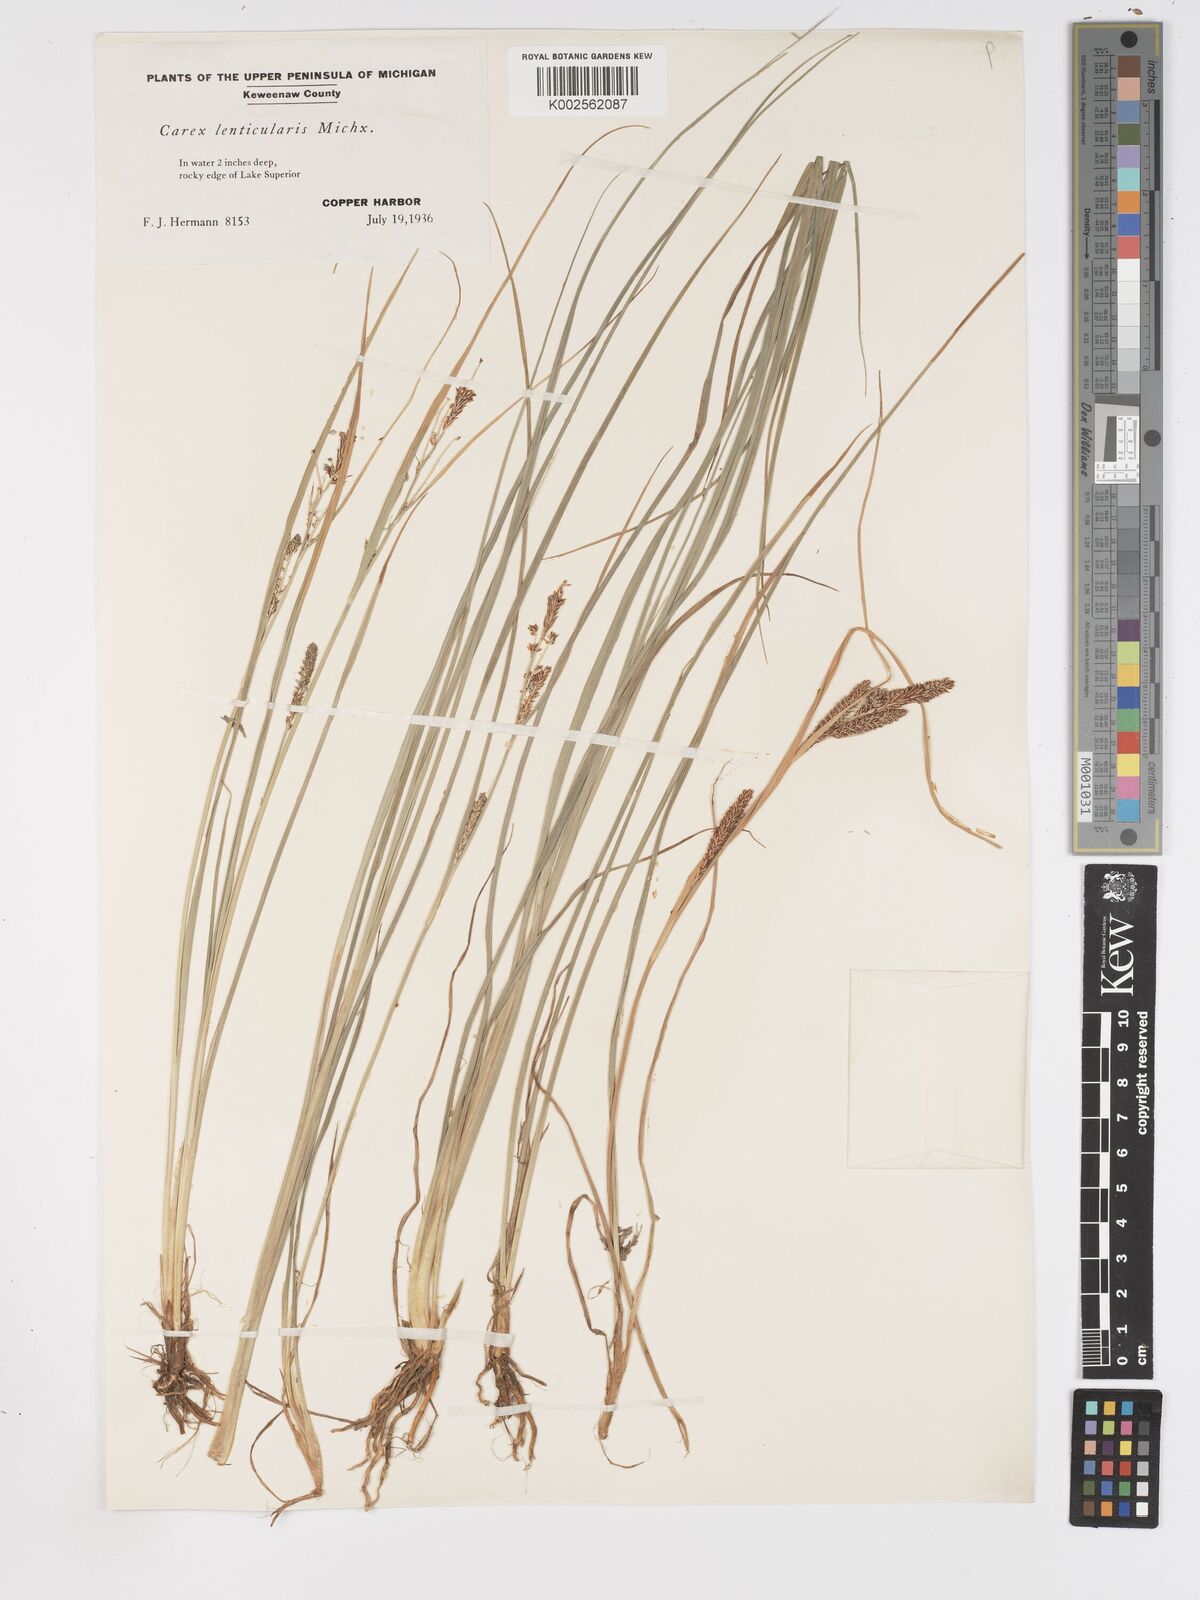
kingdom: Plantae
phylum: Tracheophyta
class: Liliopsida
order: Poales
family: Cyperaceae
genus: Carex
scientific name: Carex lenticularis
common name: Lakeshore sedge
